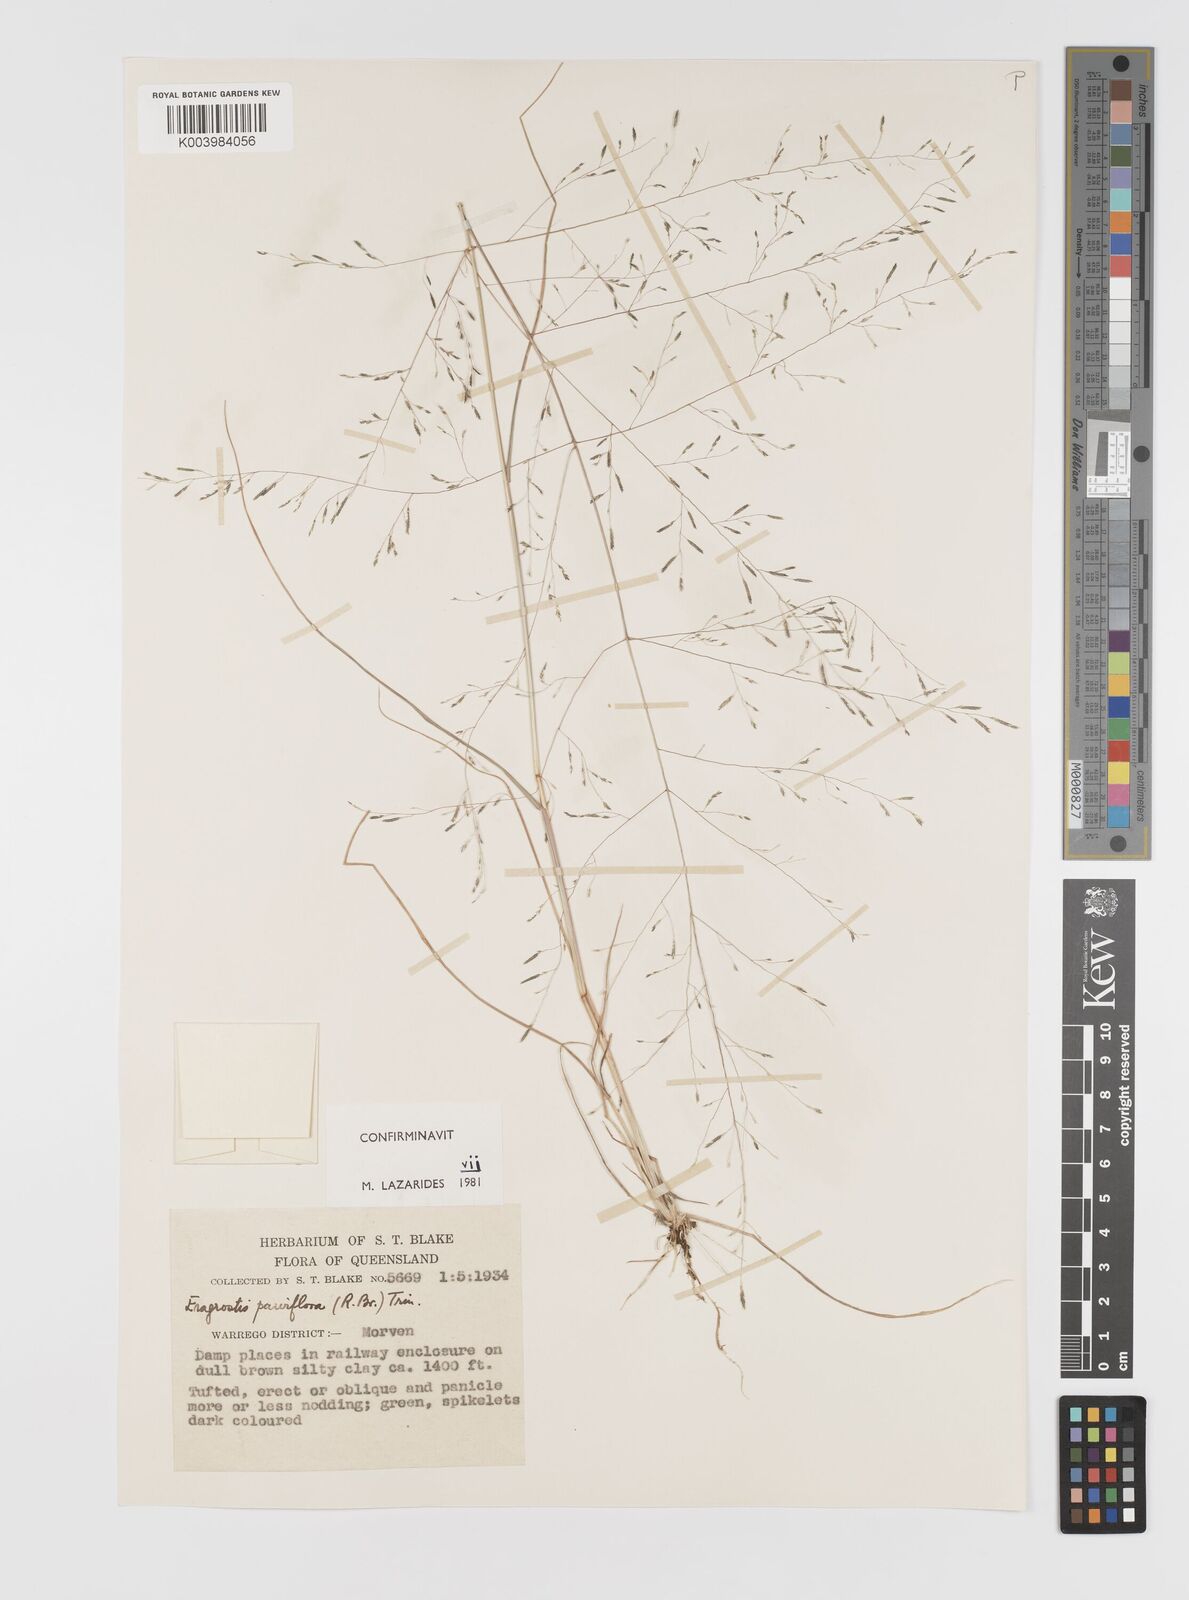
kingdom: Plantae
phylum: Tracheophyta
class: Liliopsida
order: Poales
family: Poaceae
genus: Eragrostis
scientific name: Eragrostis parviflora
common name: Weeping love-grass
